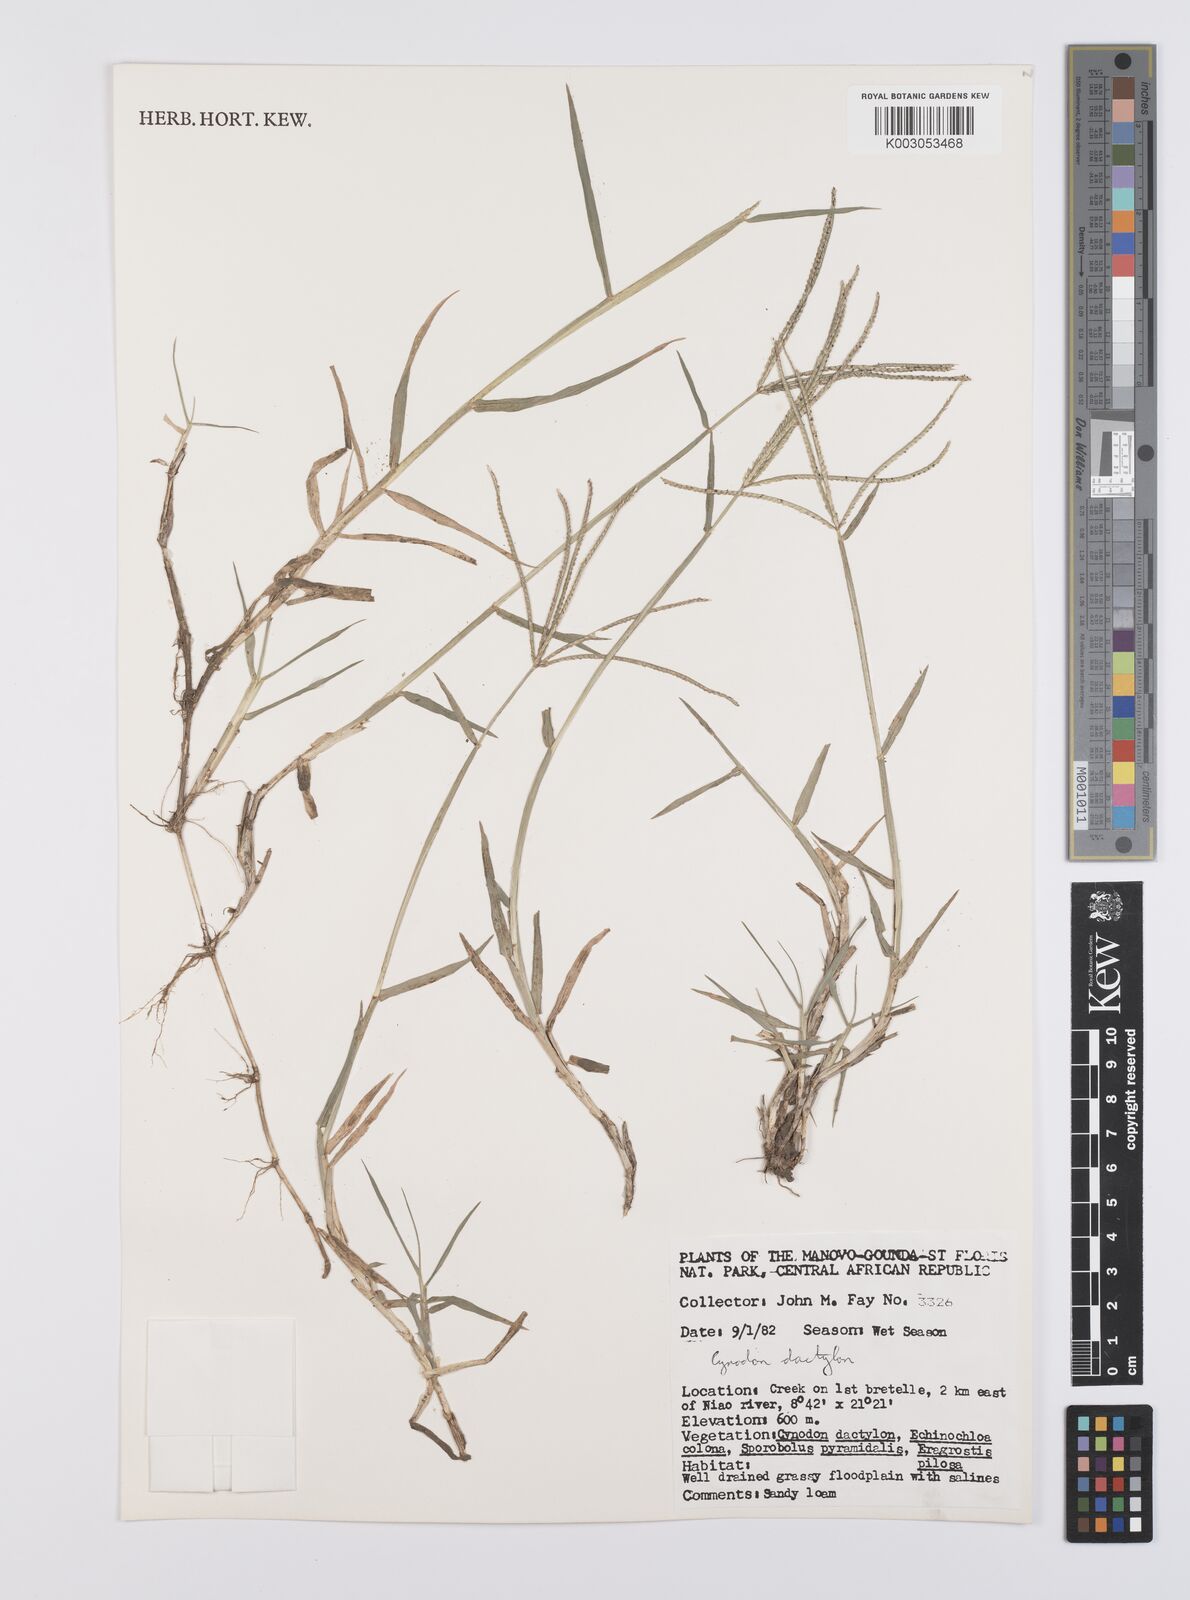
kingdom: Plantae
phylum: Tracheophyta
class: Liliopsida
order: Poales
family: Poaceae
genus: Cynodon
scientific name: Cynodon dactylon
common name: Bermuda grass
